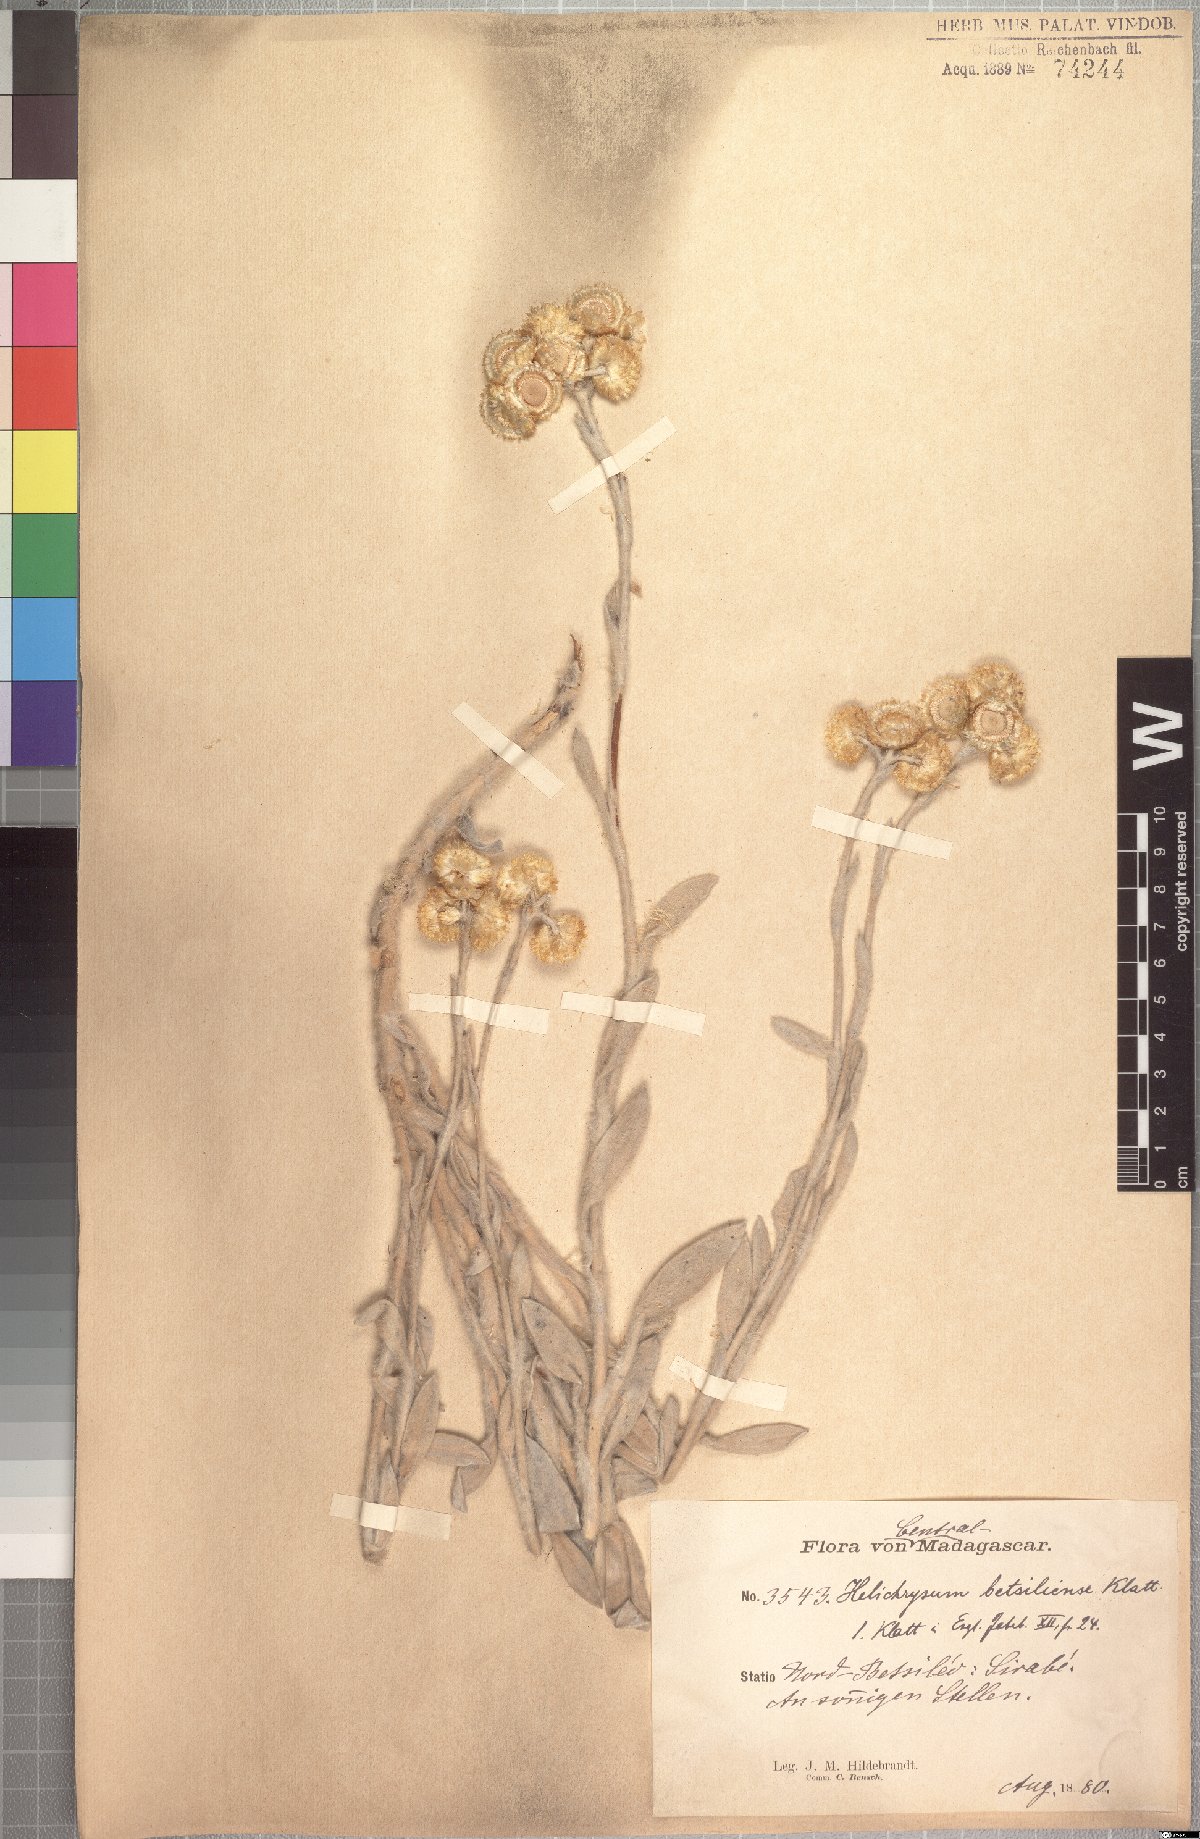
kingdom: Plantae
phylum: Tracheophyta
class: Magnoliopsida
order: Asterales
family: Asteraceae
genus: Helichrysum
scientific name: Helichrysum betsiliense
